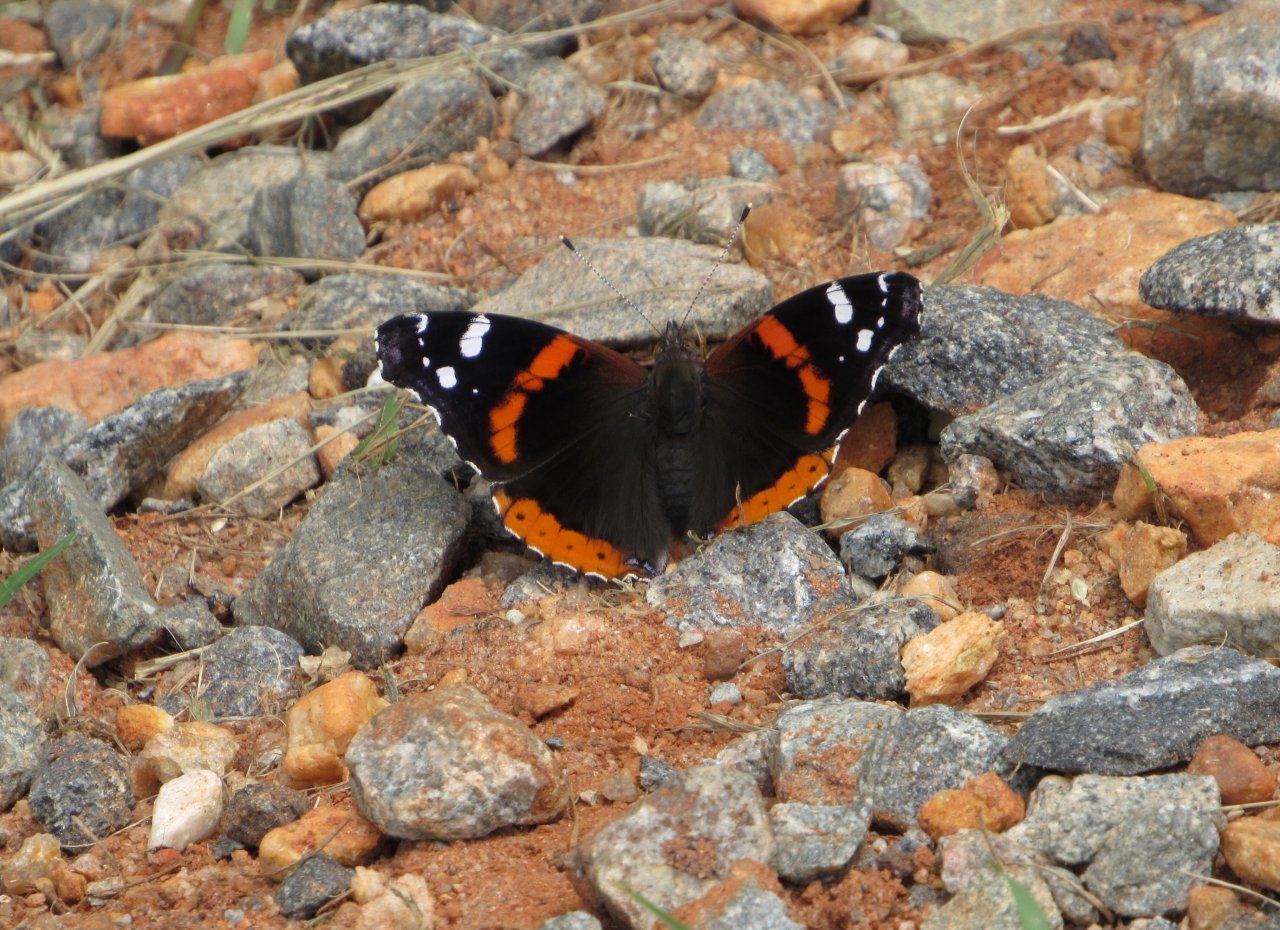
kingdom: Animalia
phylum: Arthropoda
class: Insecta
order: Lepidoptera
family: Nymphalidae
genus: Vanessa
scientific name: Vanessa atalanta
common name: Red Admiral
